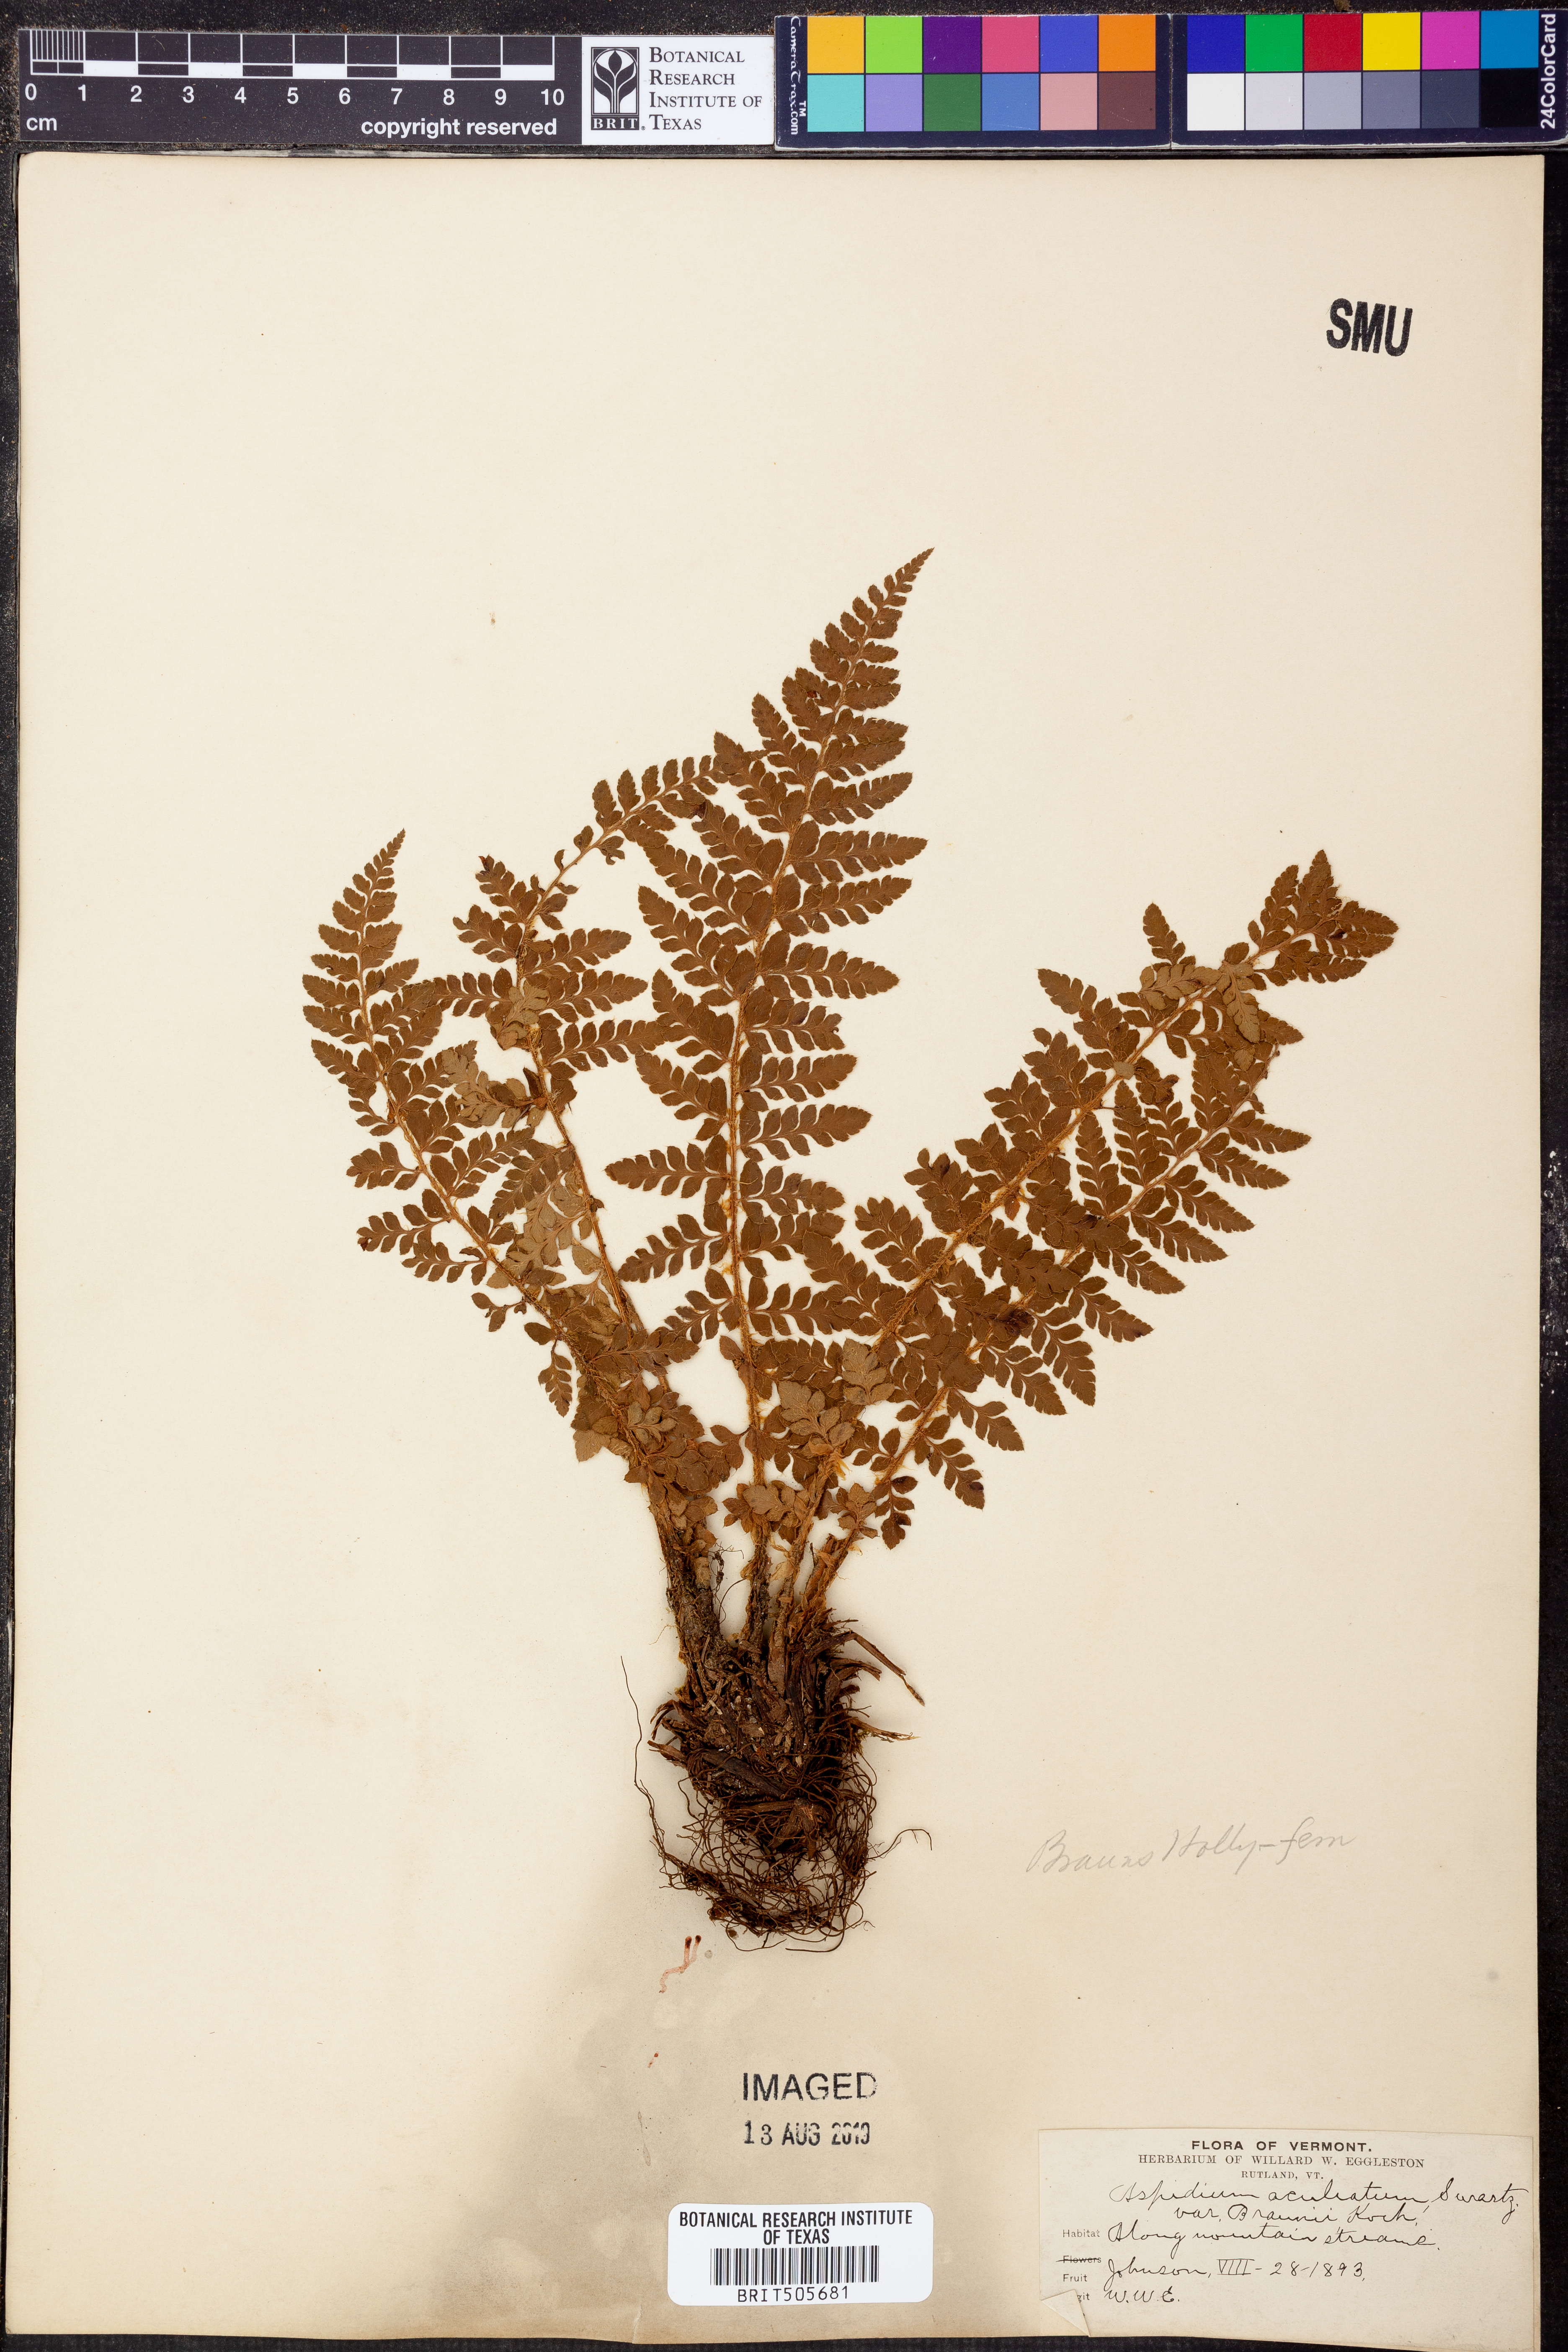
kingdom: Plantae
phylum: Tracheophyta
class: Polypodiopsida
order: Polypodiales
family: Dryopteridaceae
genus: Polystichum
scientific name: Polystichum braunii
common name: Braun's holly fern
